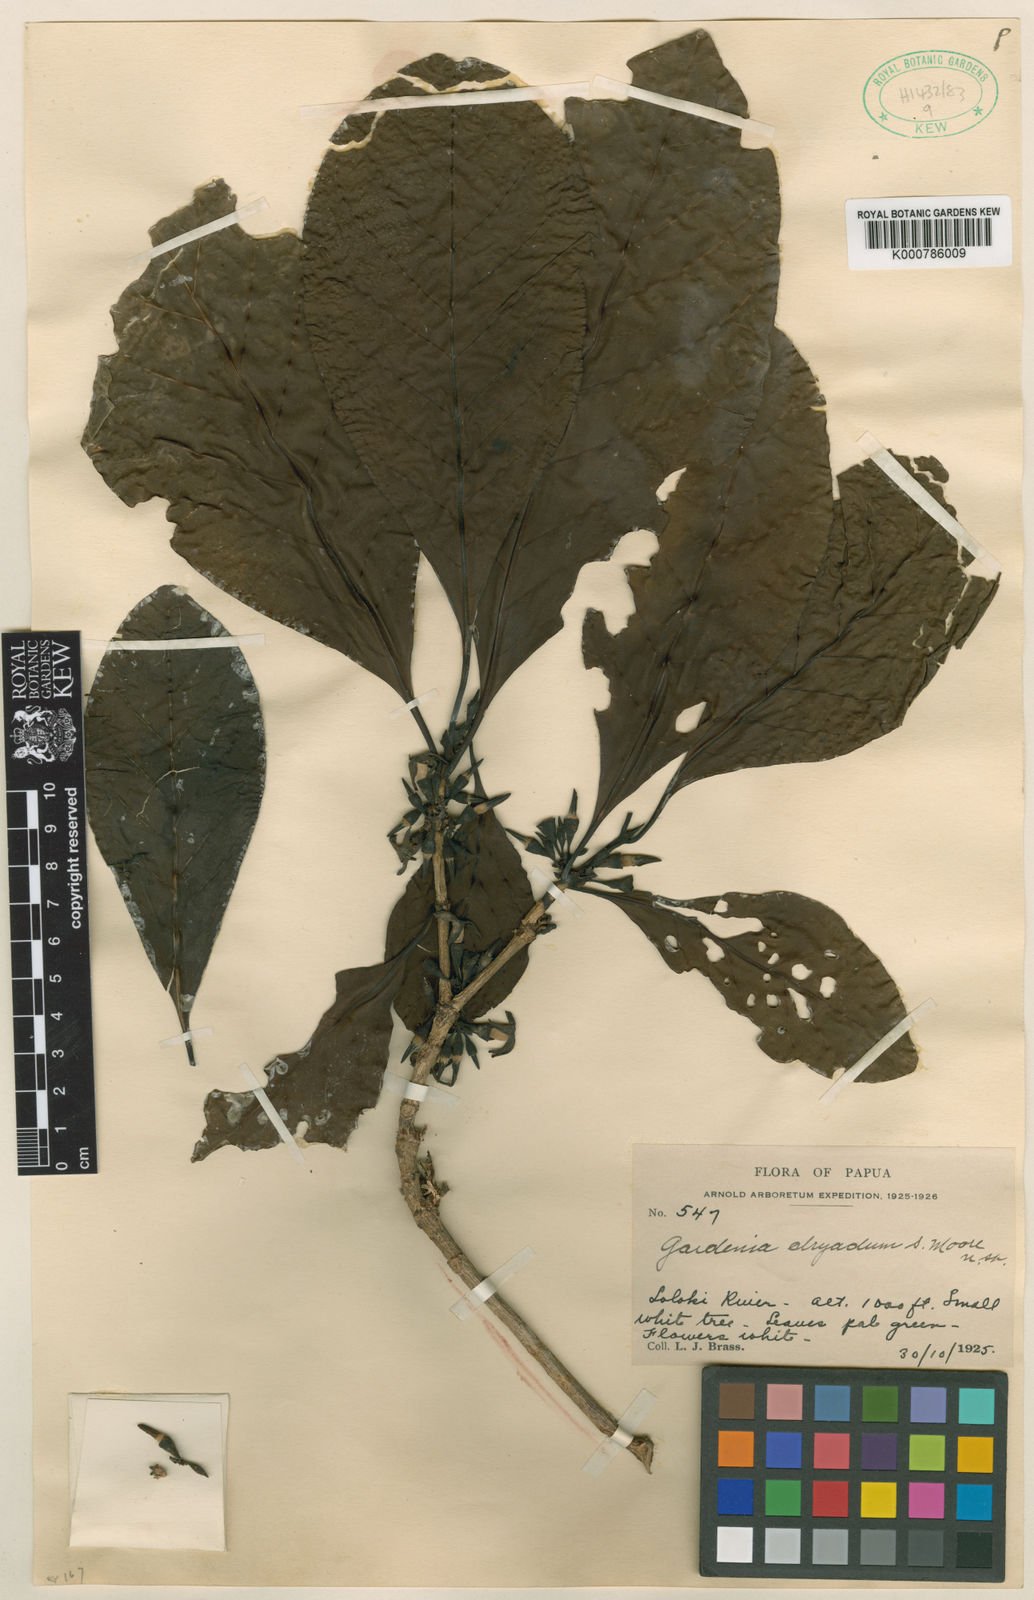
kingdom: Plantae
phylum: Tracheophyta
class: Magnoliopsida
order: Gentianales
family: Rubiaceae
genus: Atractocarpus
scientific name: Atractocarpus macarthurii
